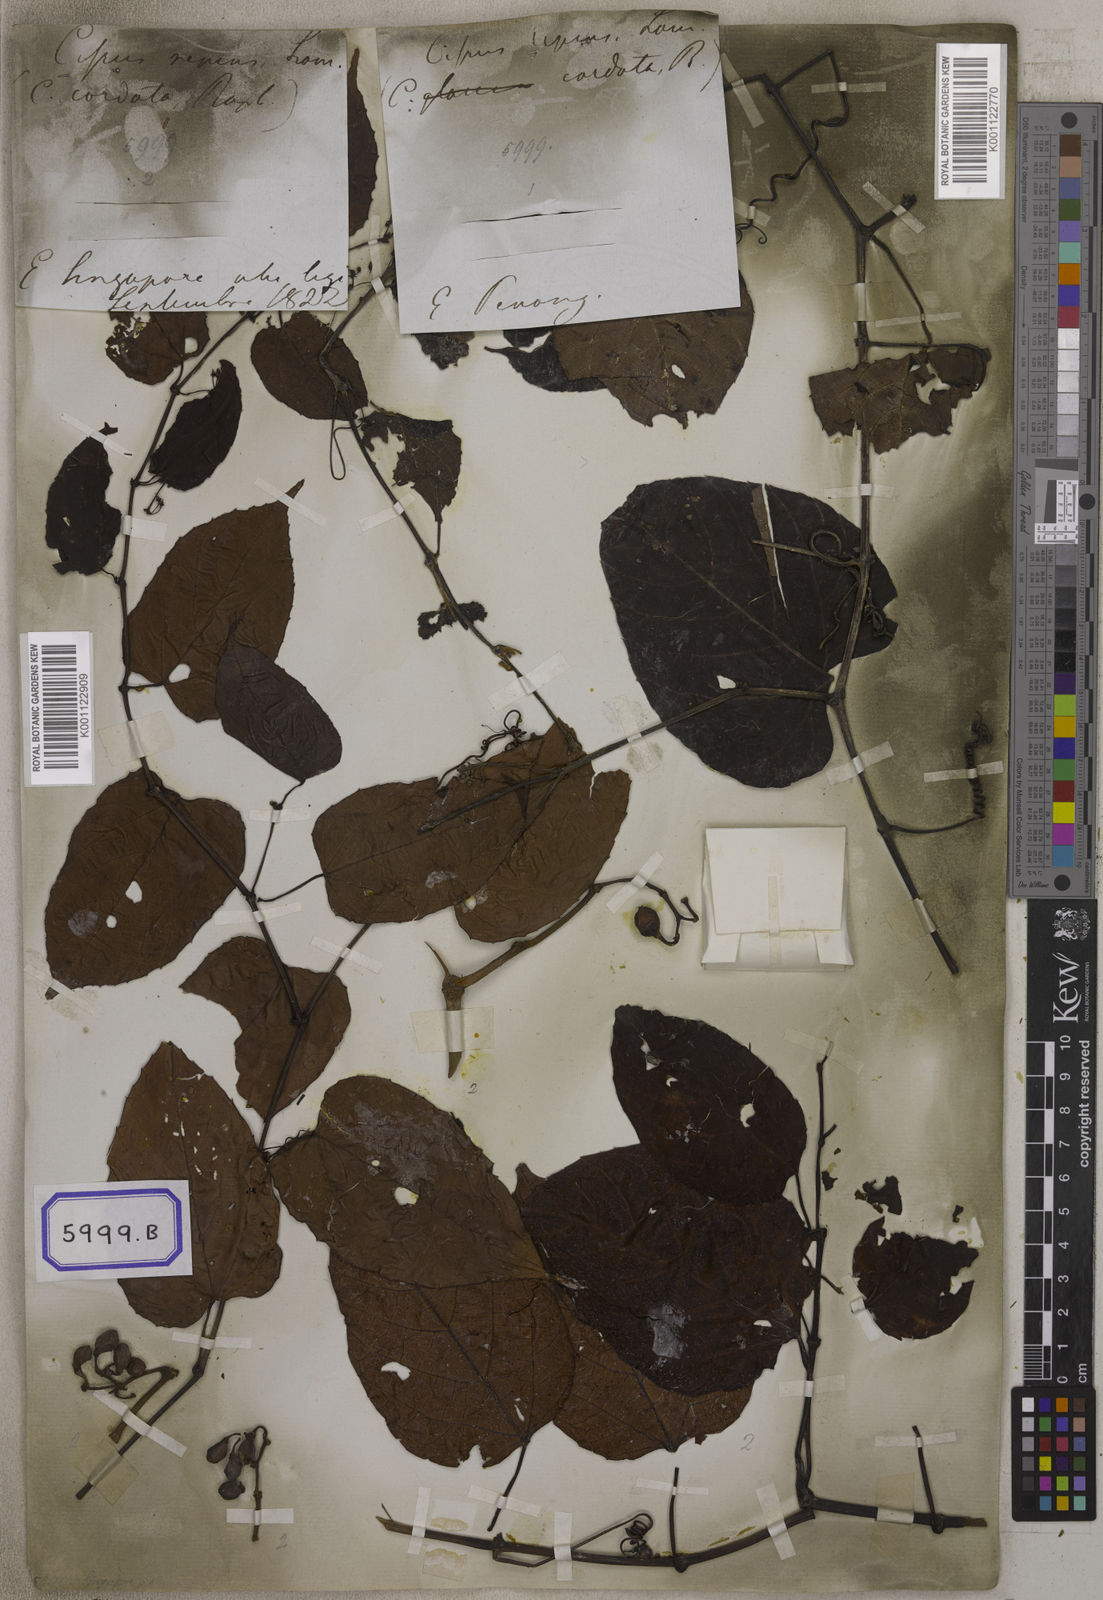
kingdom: Plantae
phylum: Tracheophyta
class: Magnoliopsida
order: Vitales
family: Vitaceae
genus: Cissus
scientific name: Cissus adnata
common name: Heart-leaf-grape
